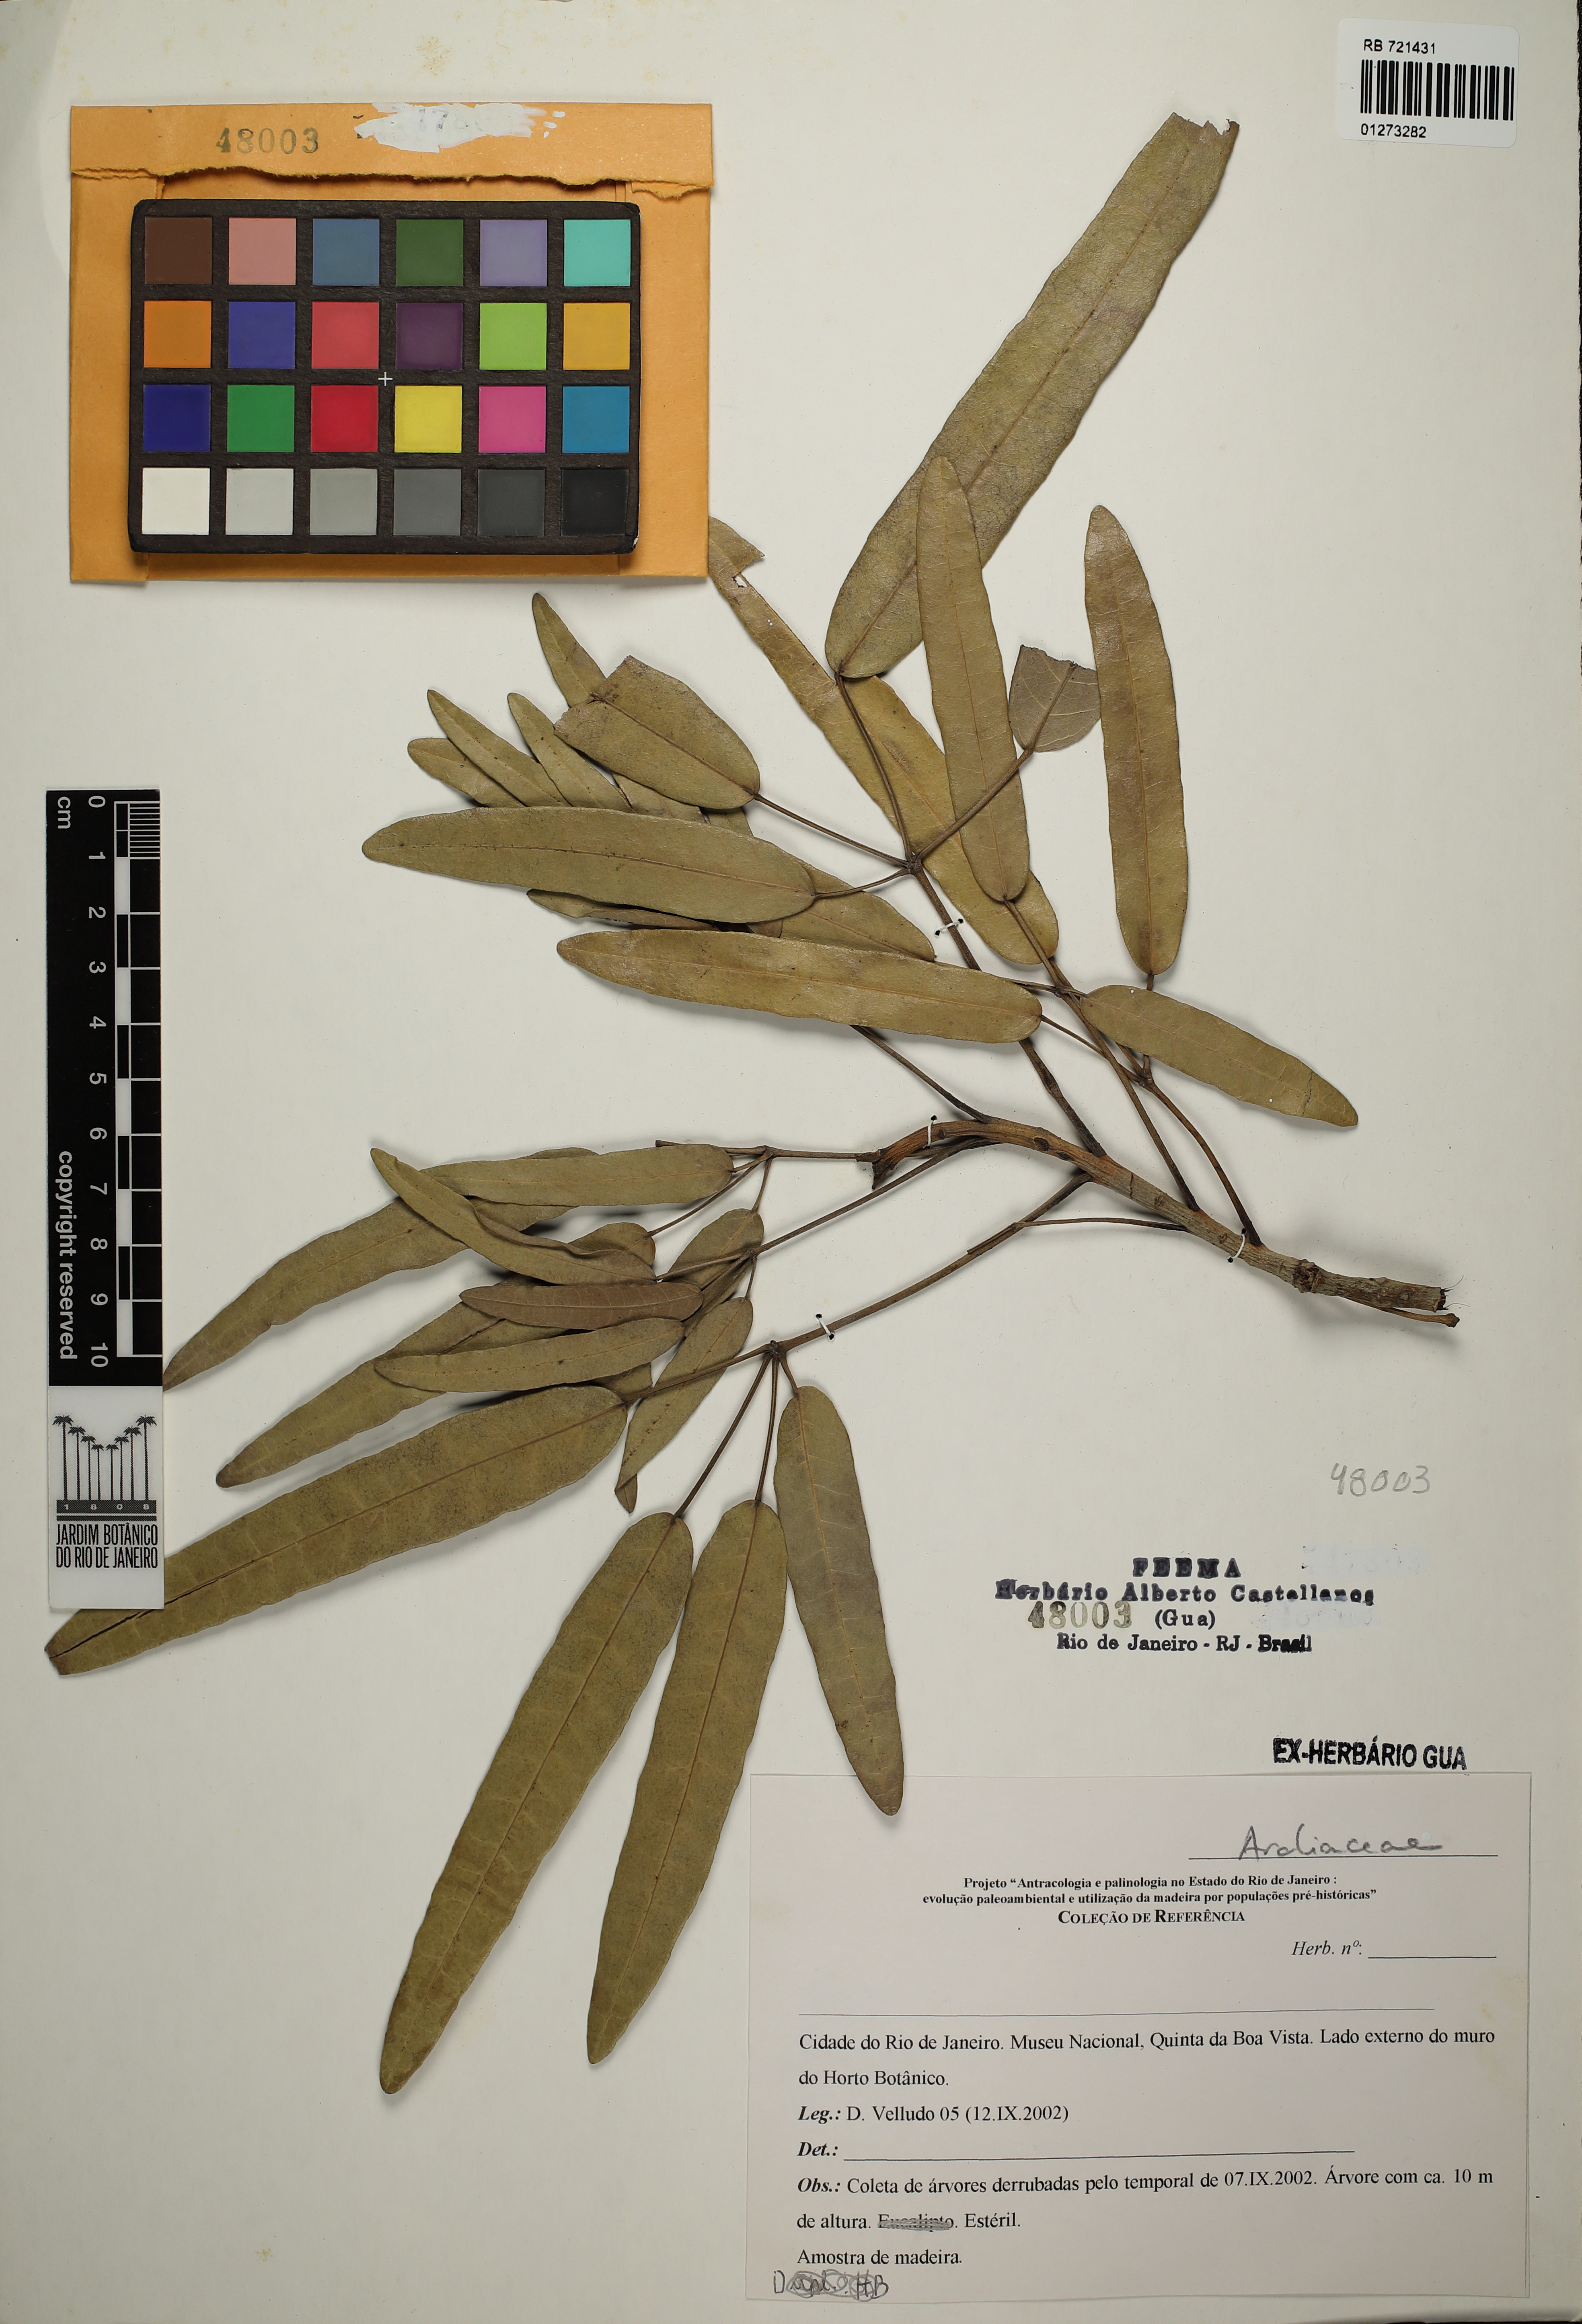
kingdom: Plantae
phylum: Tracheophyta
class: Magnoliopsida
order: Apiales
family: Araliaceae
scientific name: Araliaceae
